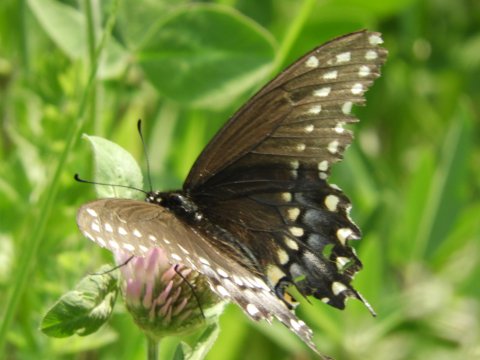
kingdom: Animalia
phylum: Arthropoda
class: Insecta
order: Lepidoptera
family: Papilionidae
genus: Papilio
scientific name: Papilio polyxenes
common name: Black Swallowtail
